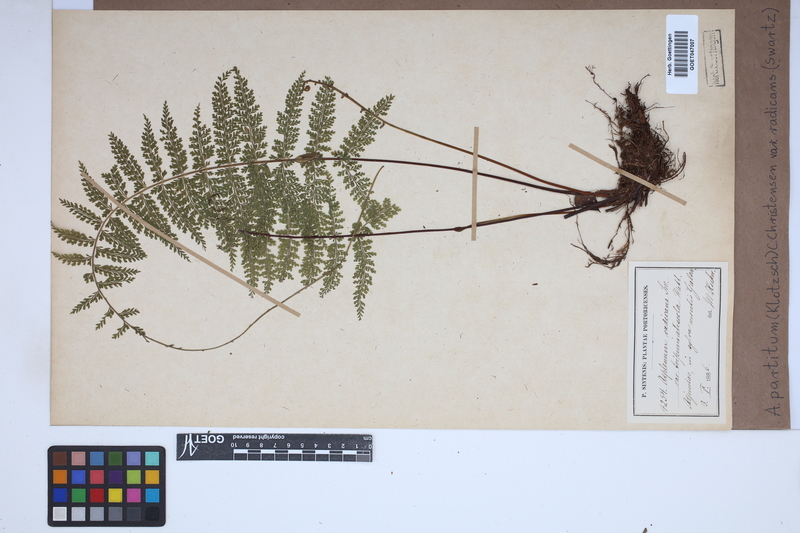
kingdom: Plantae
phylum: Tracheophyta
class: Polypodiopsida
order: Polypodiales
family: Aspleniaceae
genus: Asplenium
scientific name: Asplenium flabellulatum
